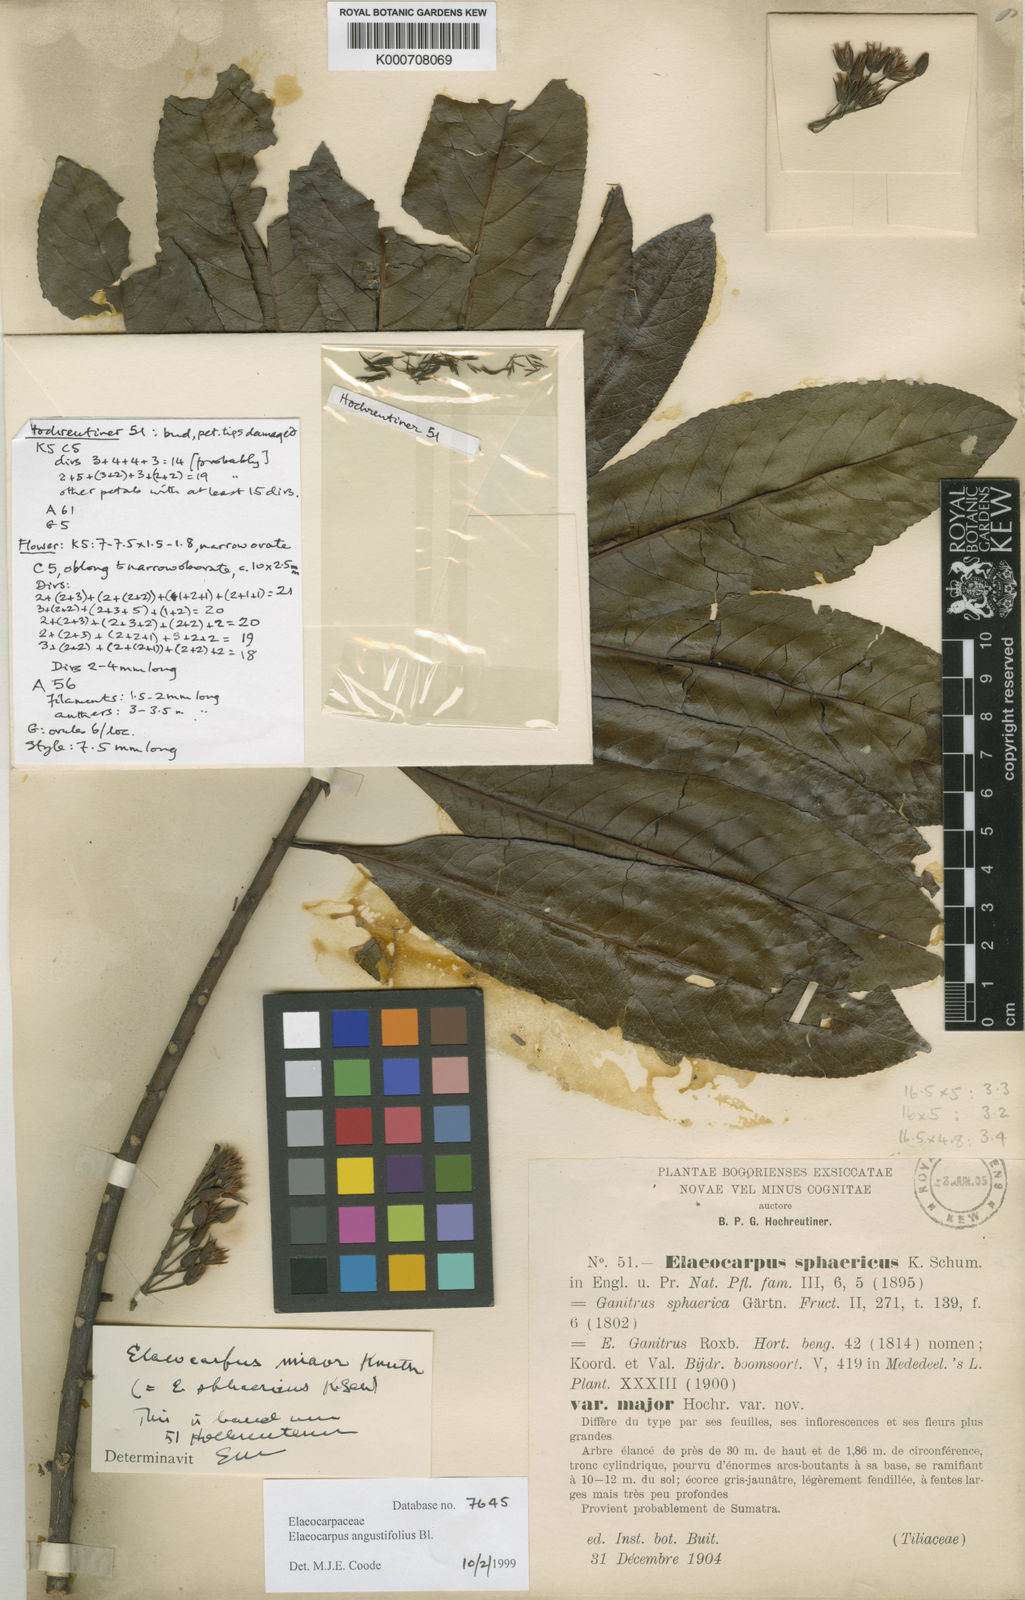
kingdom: Plantae
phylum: Tracheophyta
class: Magnoliopsida
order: Oxalidales
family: Elaeocarpaceae
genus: Elaeocarpus
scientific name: Elaeocarpus angustifolius
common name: Blue marble tree
